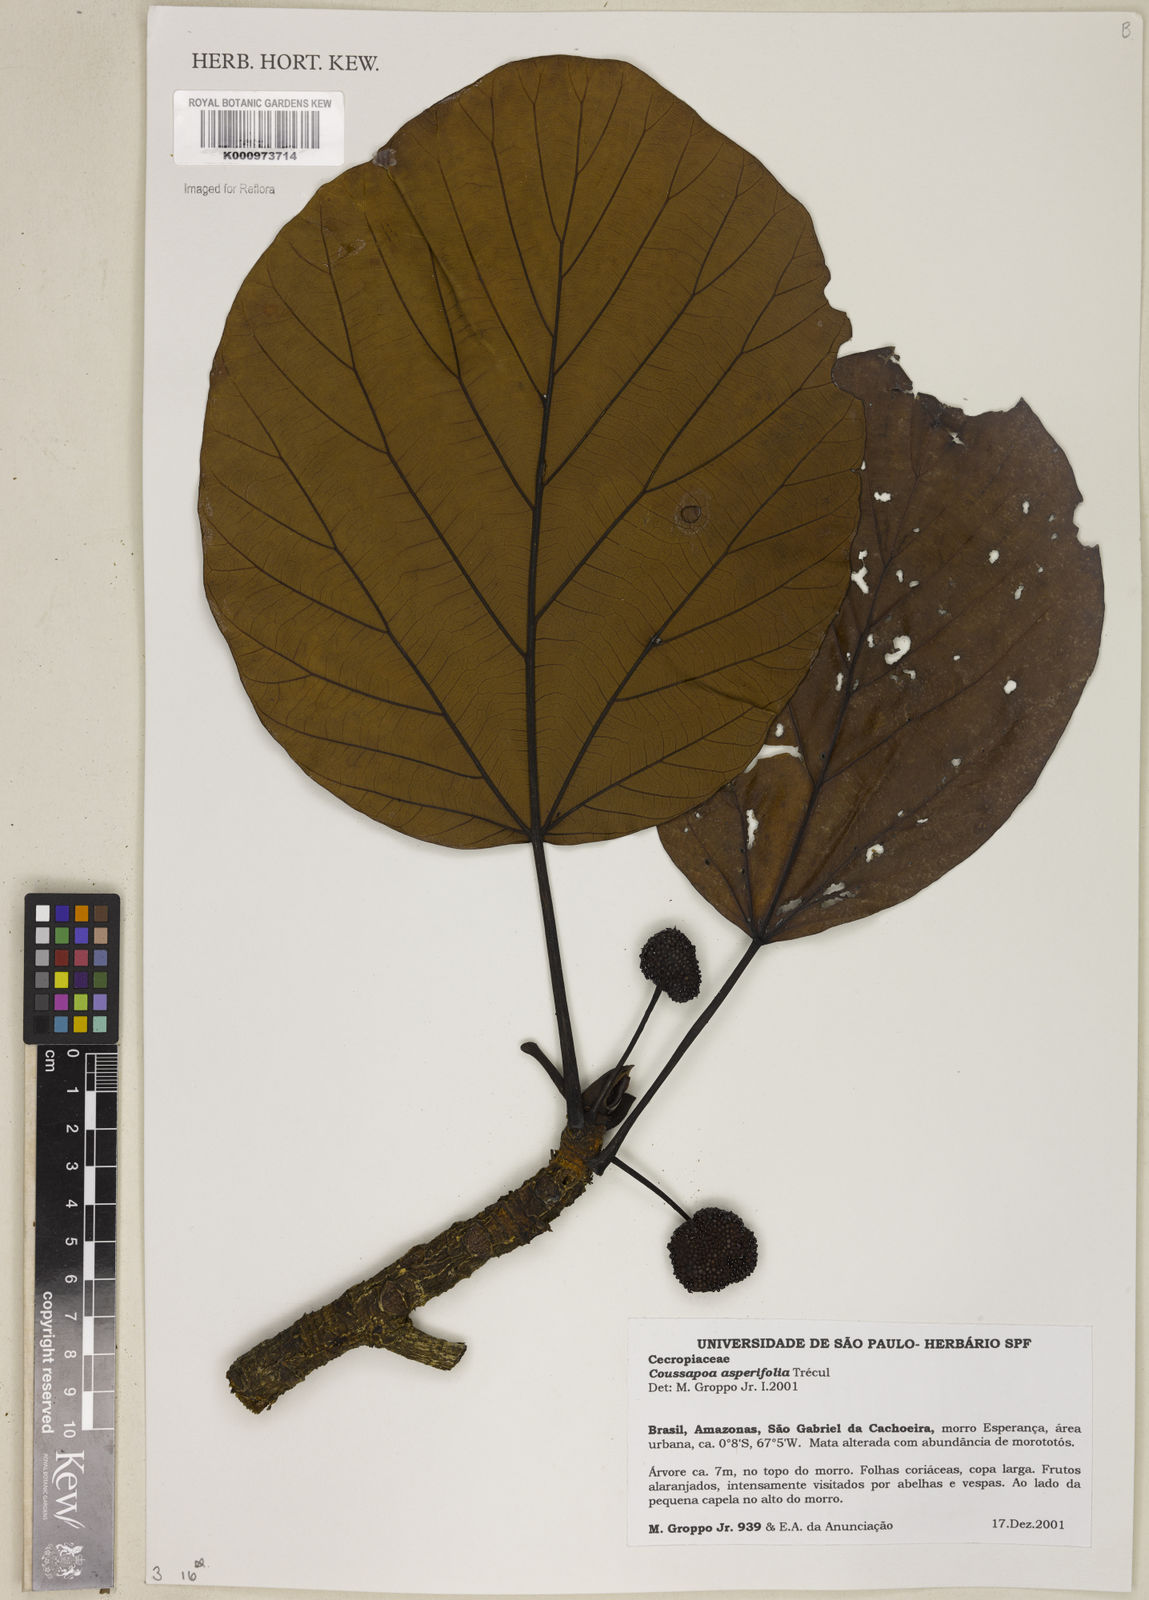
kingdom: Plantae
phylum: Tracheophyta
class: Magnoliopsida
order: Rosales
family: Urticaceae
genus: Coussapoa
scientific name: Coussapoa
